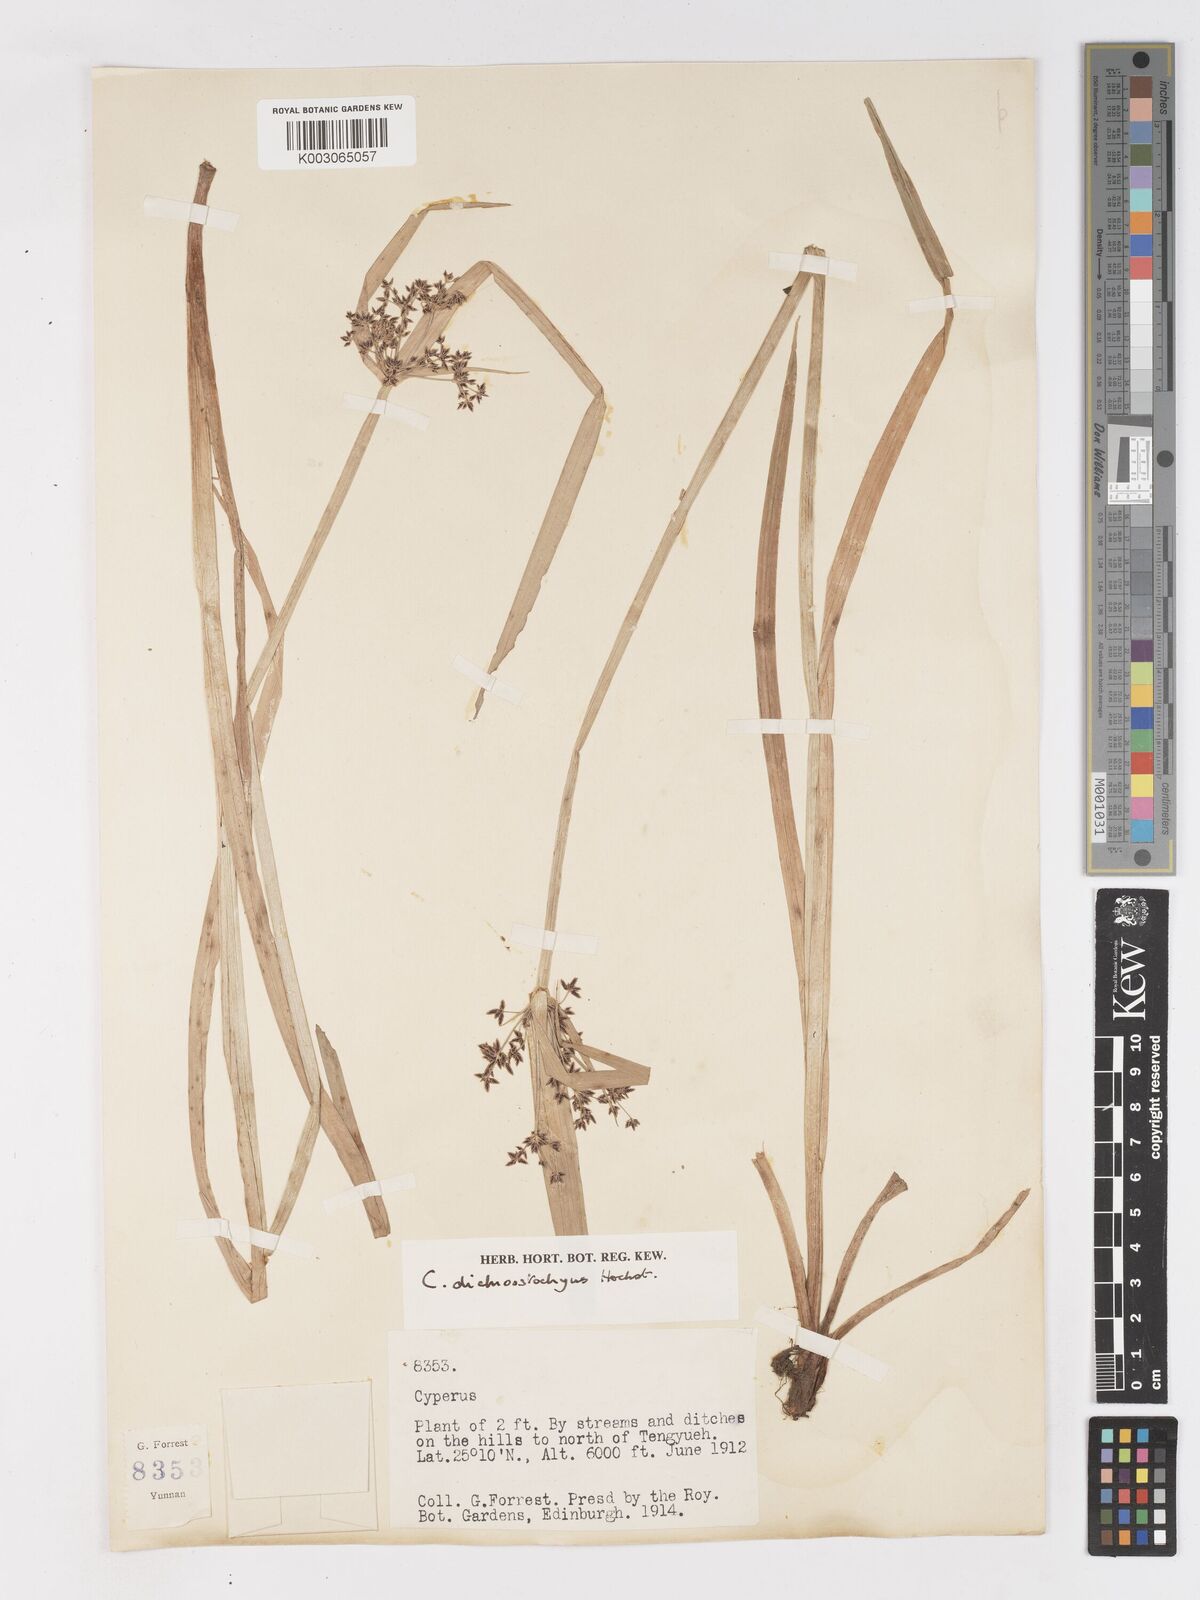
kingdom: Plantae
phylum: Tracheophyta
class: Liliopsida
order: Poales
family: Cyperaceae
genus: Cyperus
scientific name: Cyperus dichrostachyus
